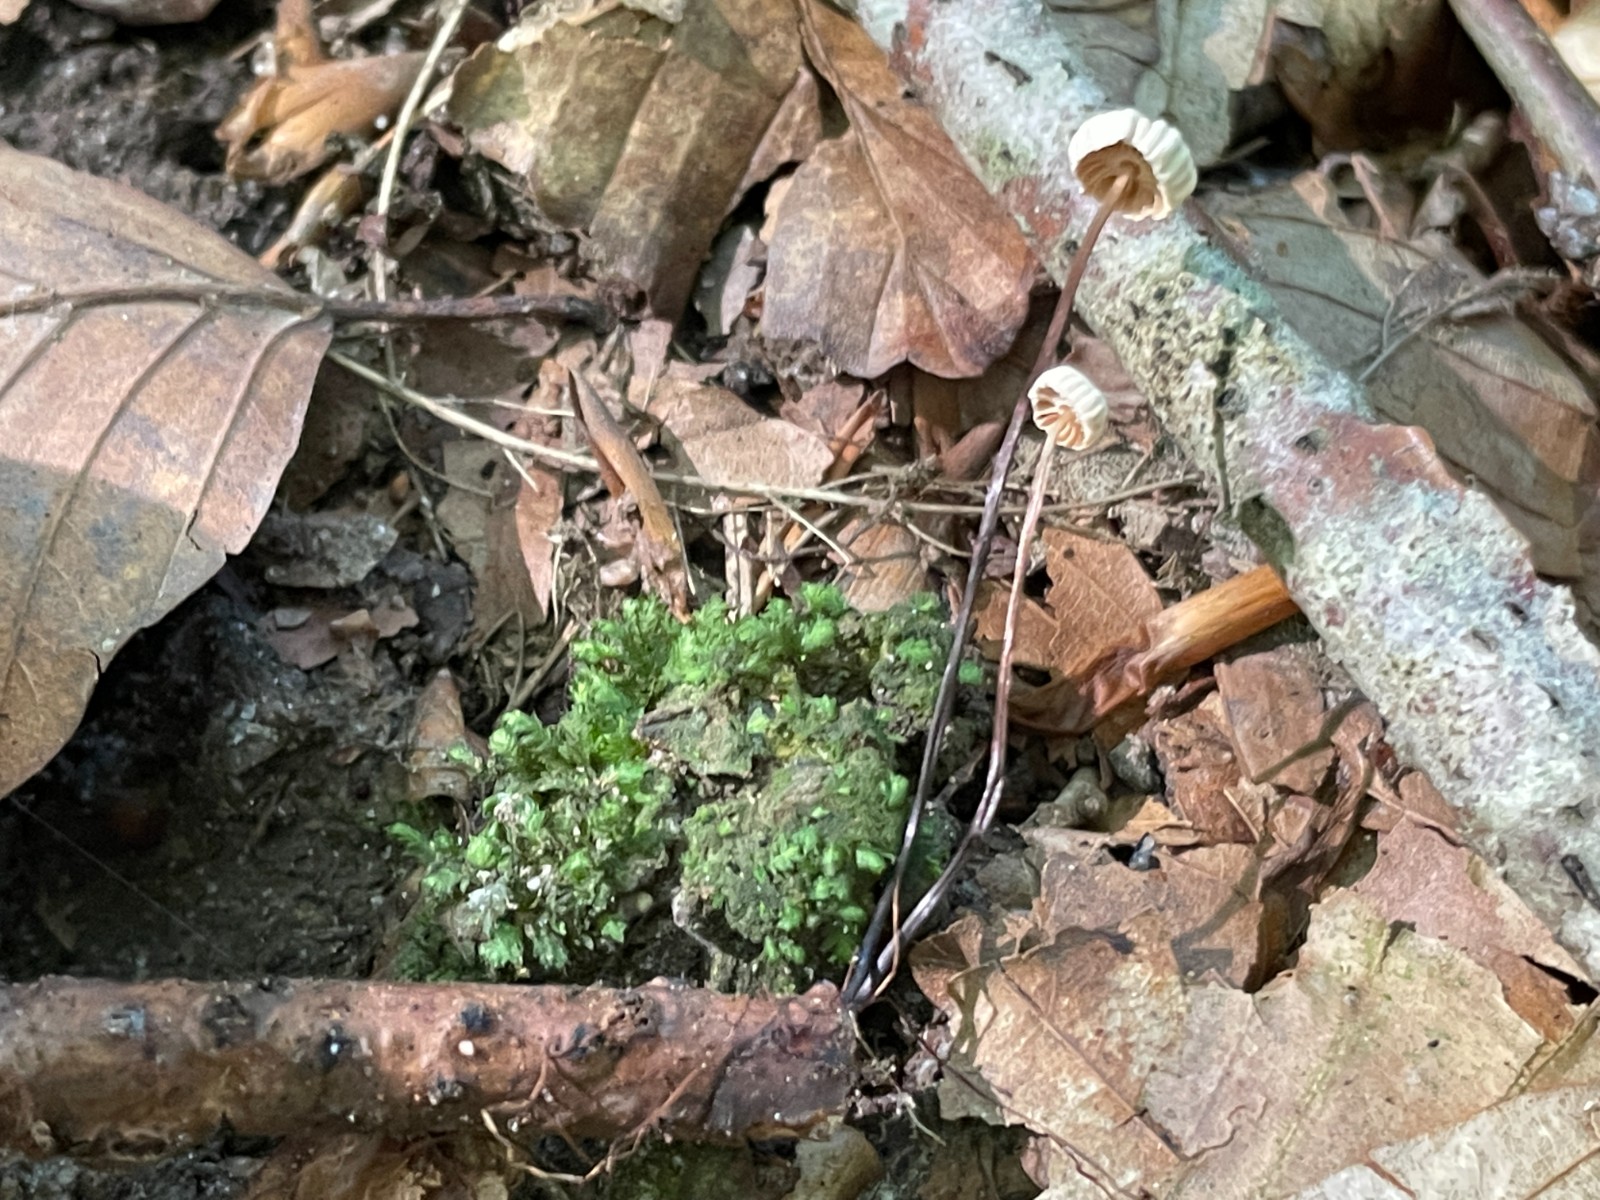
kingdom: Fungi
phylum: Basidiomycota
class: Agaricomycetes
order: Agaricales
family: Marasmiaceae
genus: Marasmius
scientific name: Marasmius rotula
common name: hjul-bruskhat
